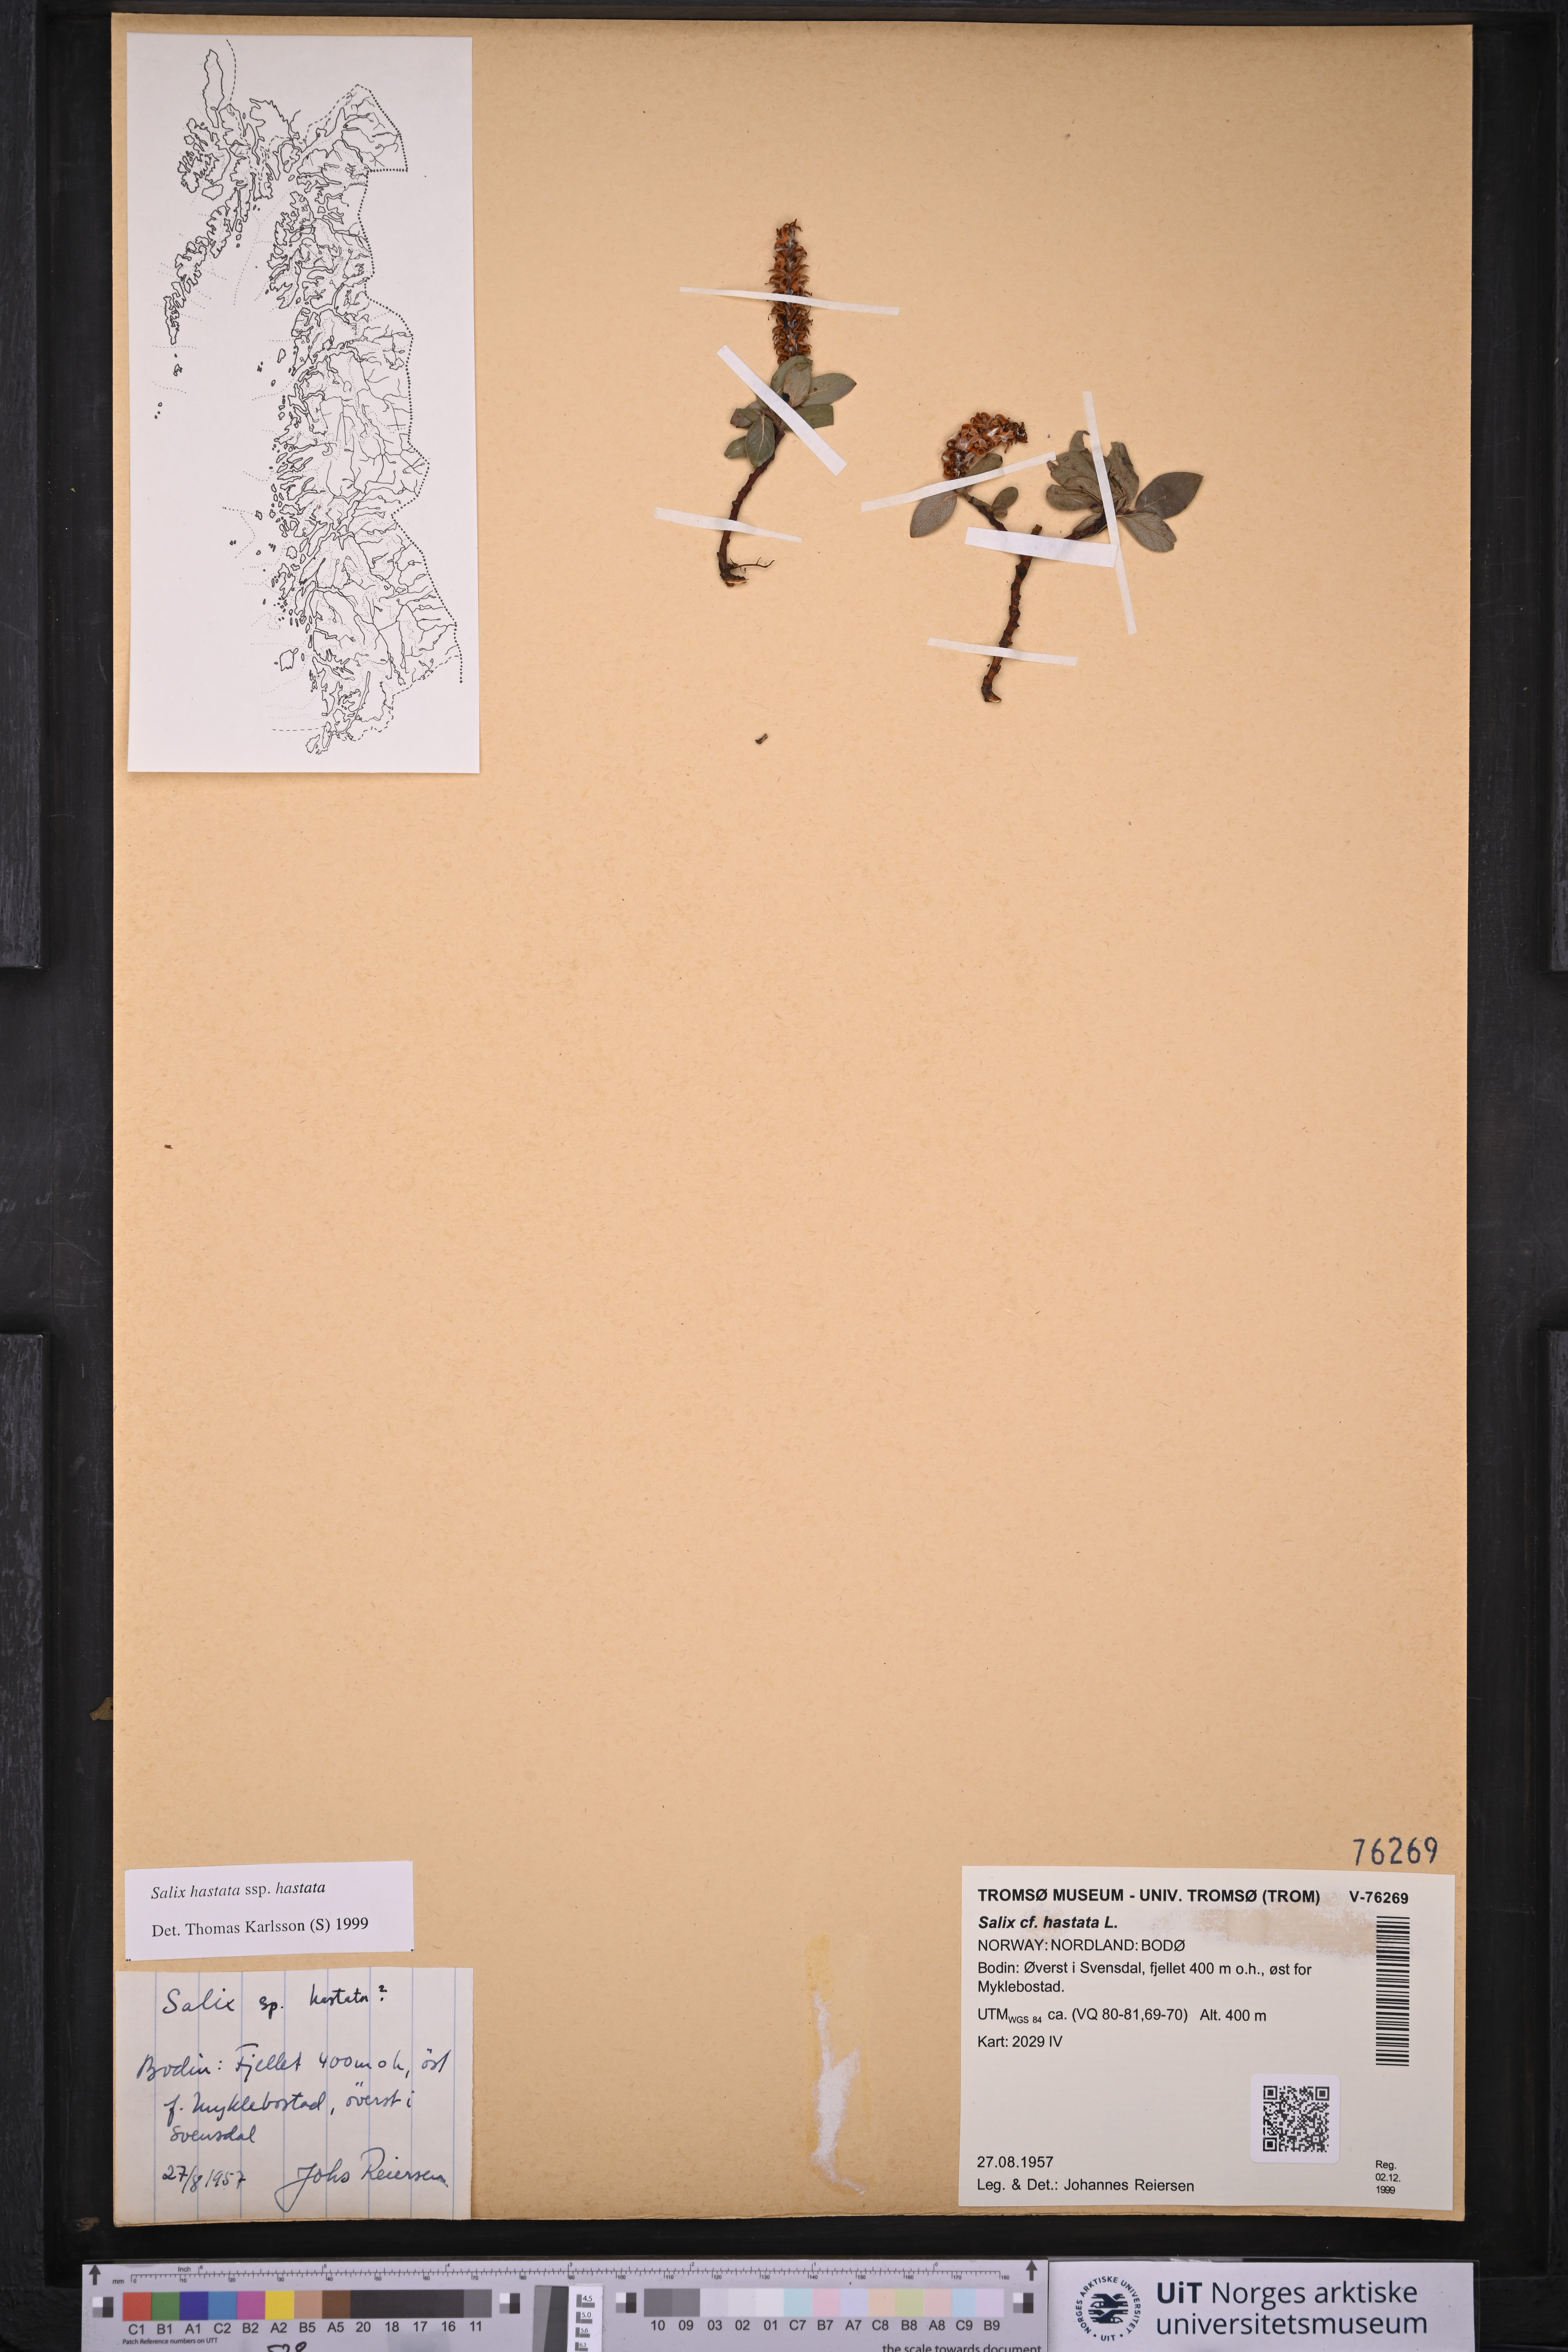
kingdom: Plantae
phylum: Tracheophyta
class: Magnoliopsida
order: Malpighiales
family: Salicaceae
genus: Salix
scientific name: Salix hastata
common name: Halberd willow
